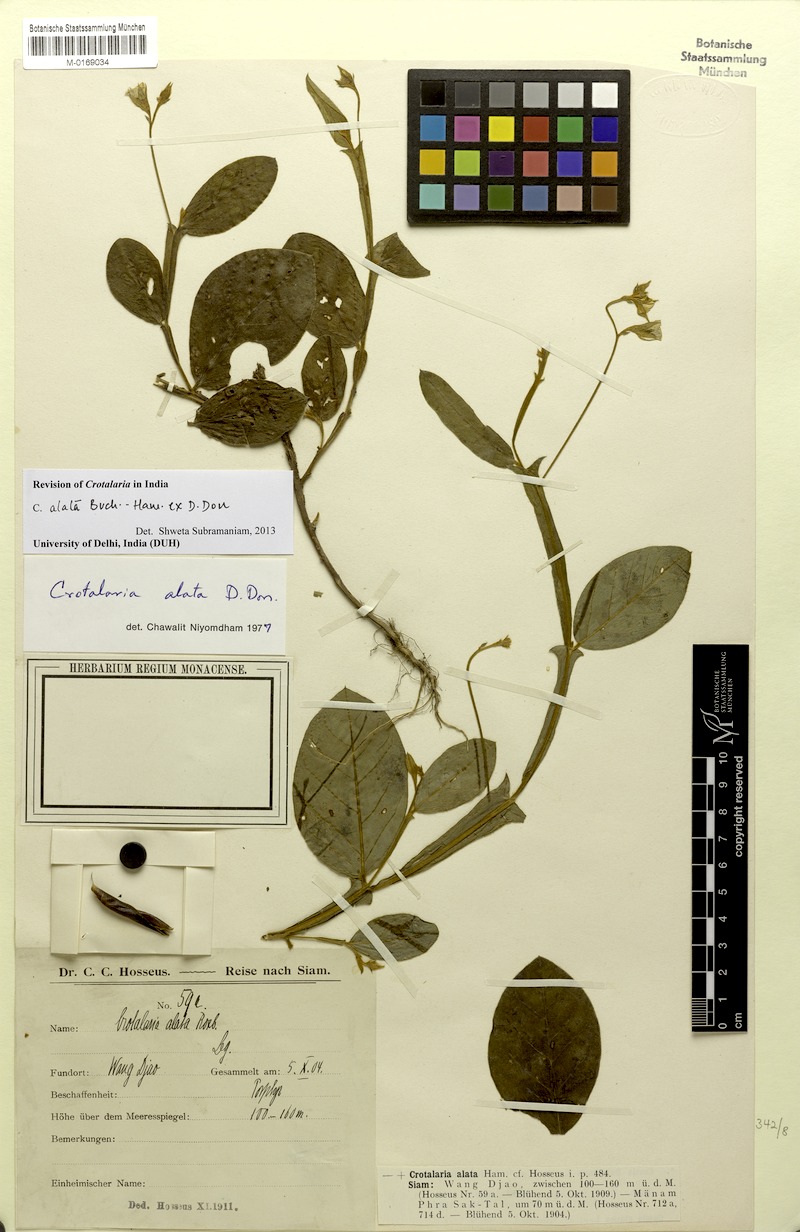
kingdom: Plantae
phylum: Tracheophyta
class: Magnoliopsida
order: Fabales
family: Fabaceae
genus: Crotalaria
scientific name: Crotalaria alata
